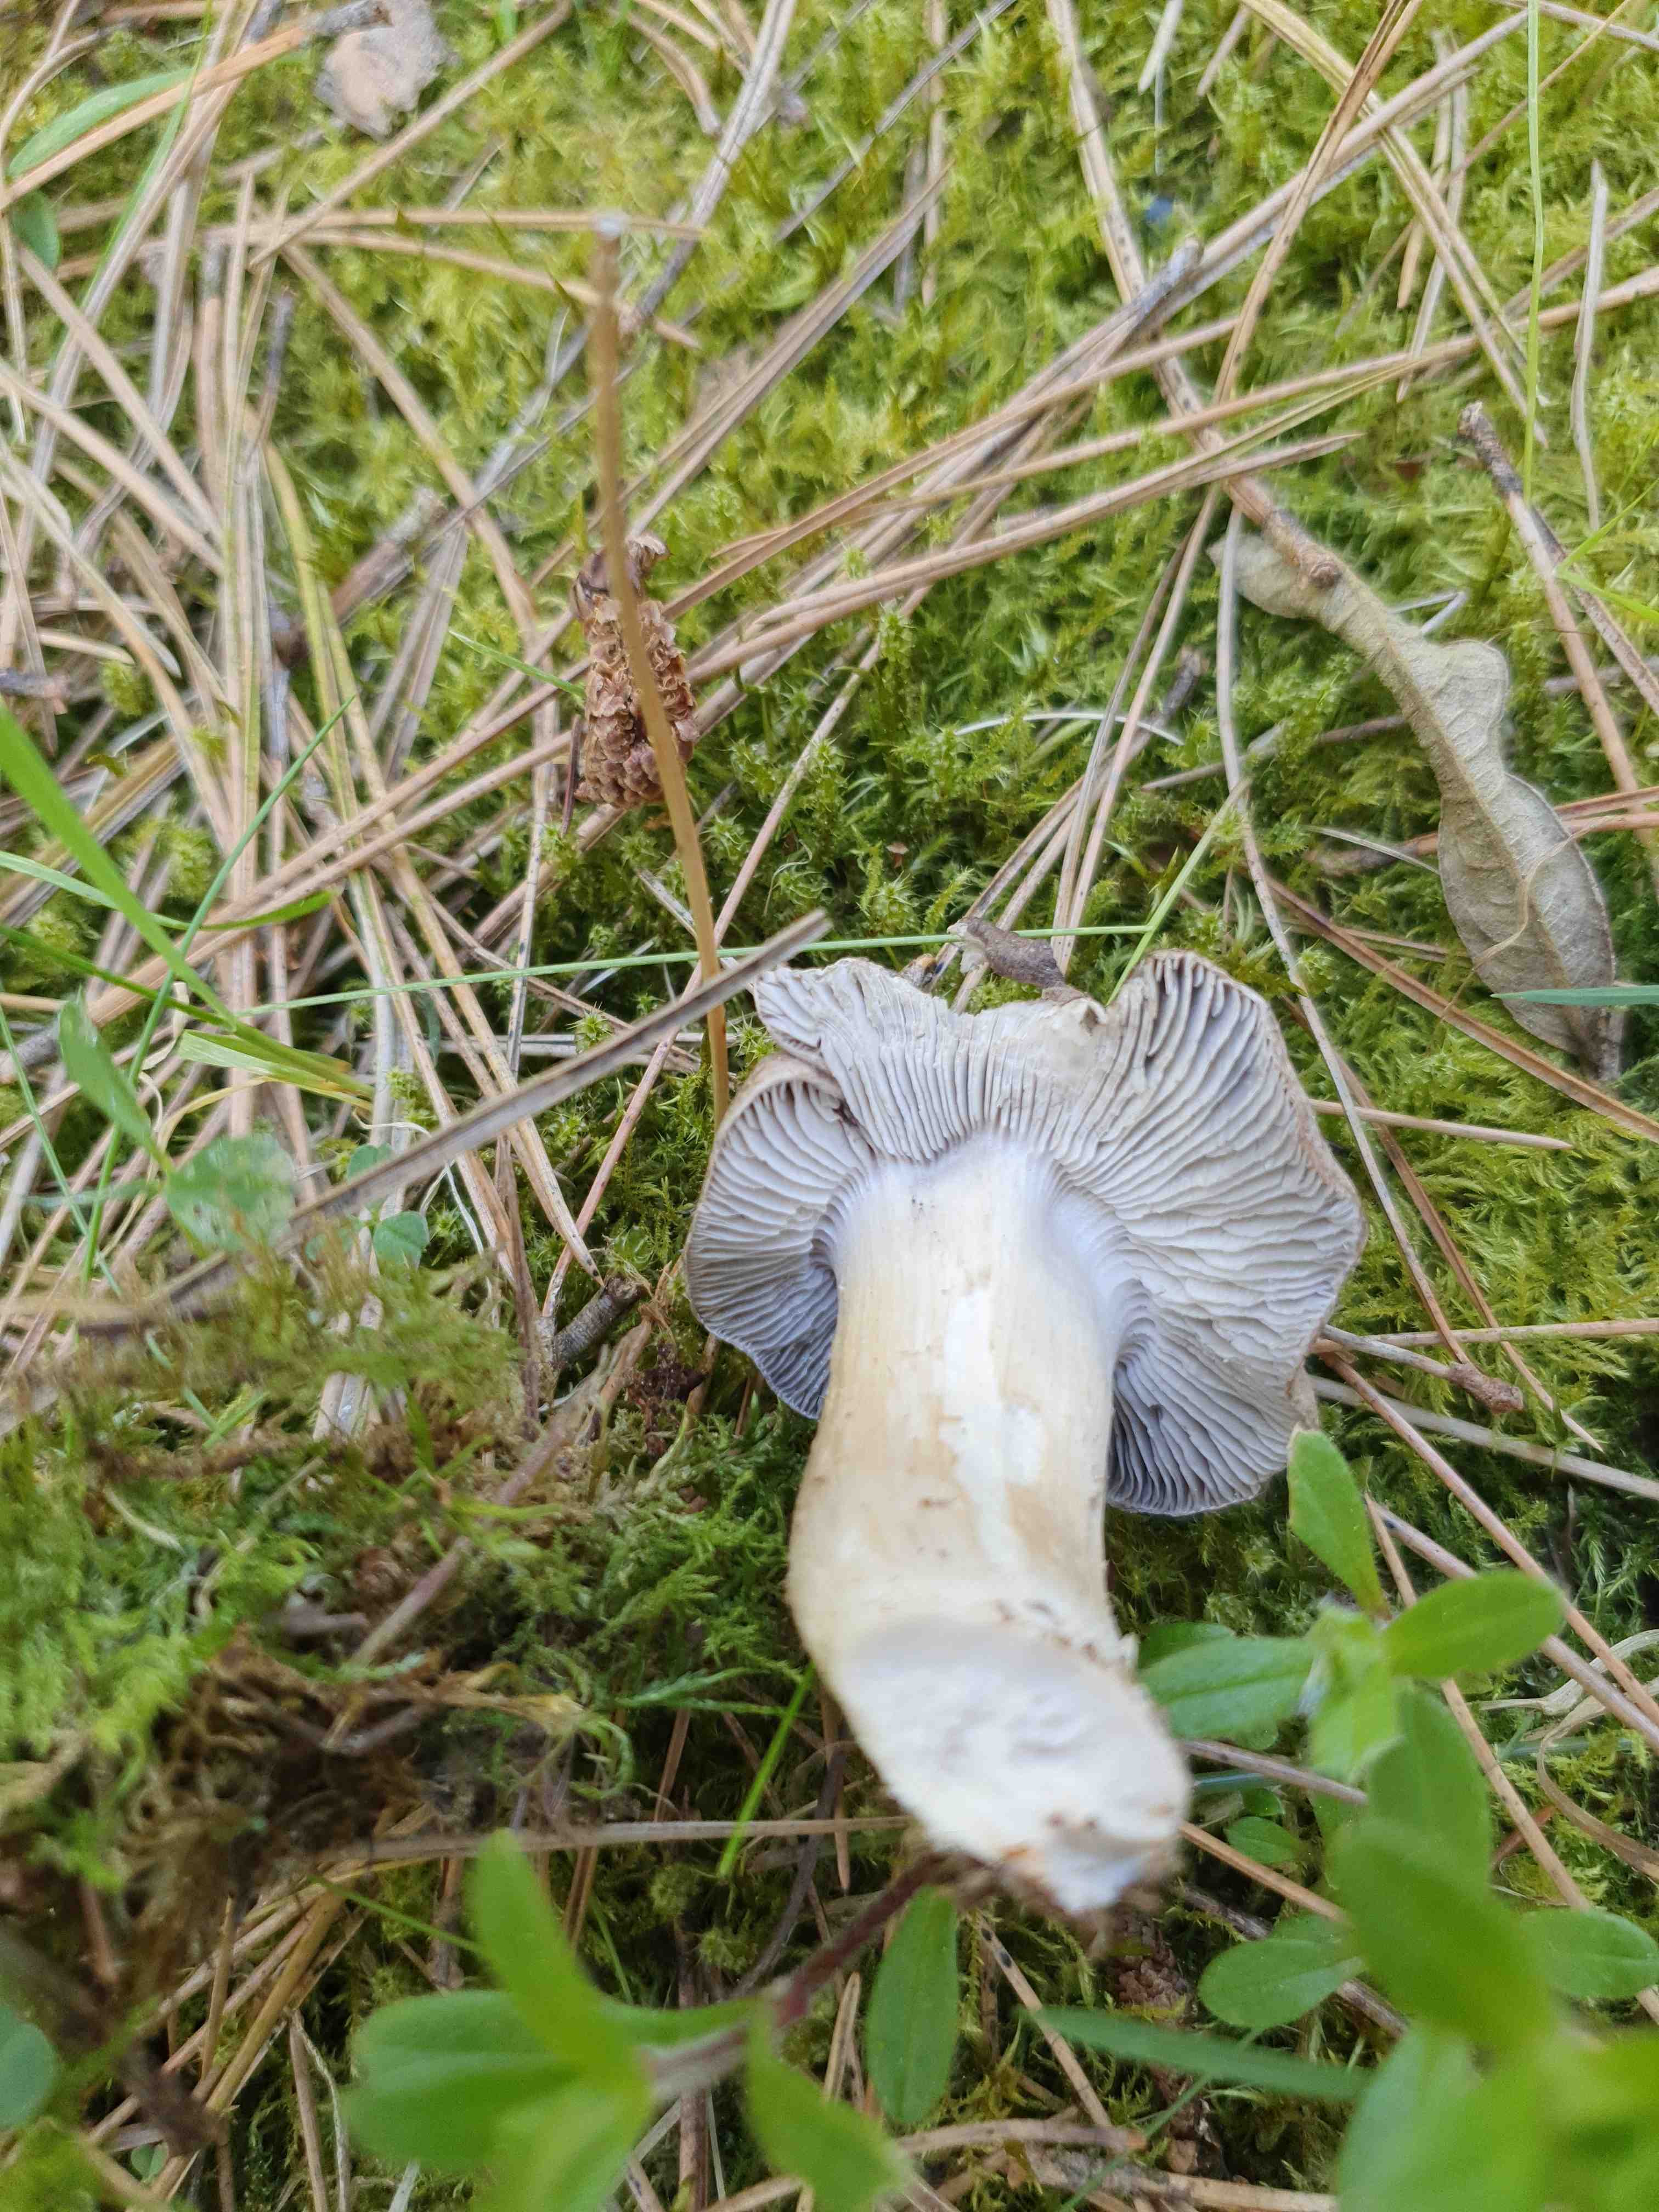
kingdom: Fungi
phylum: Basidiomycota
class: Agaricomycetes
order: Agaricales
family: Tricholomataceae
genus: Tricholoma
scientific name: Tricholoma terreum
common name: jordfarvet ridderhat
